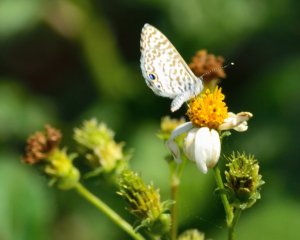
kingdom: Animalia
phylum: Arthropoda
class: Insecta
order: Lepidoptera
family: Lycaenidae
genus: Leptotes
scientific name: Leptotes cassius
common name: Cassius Blue
